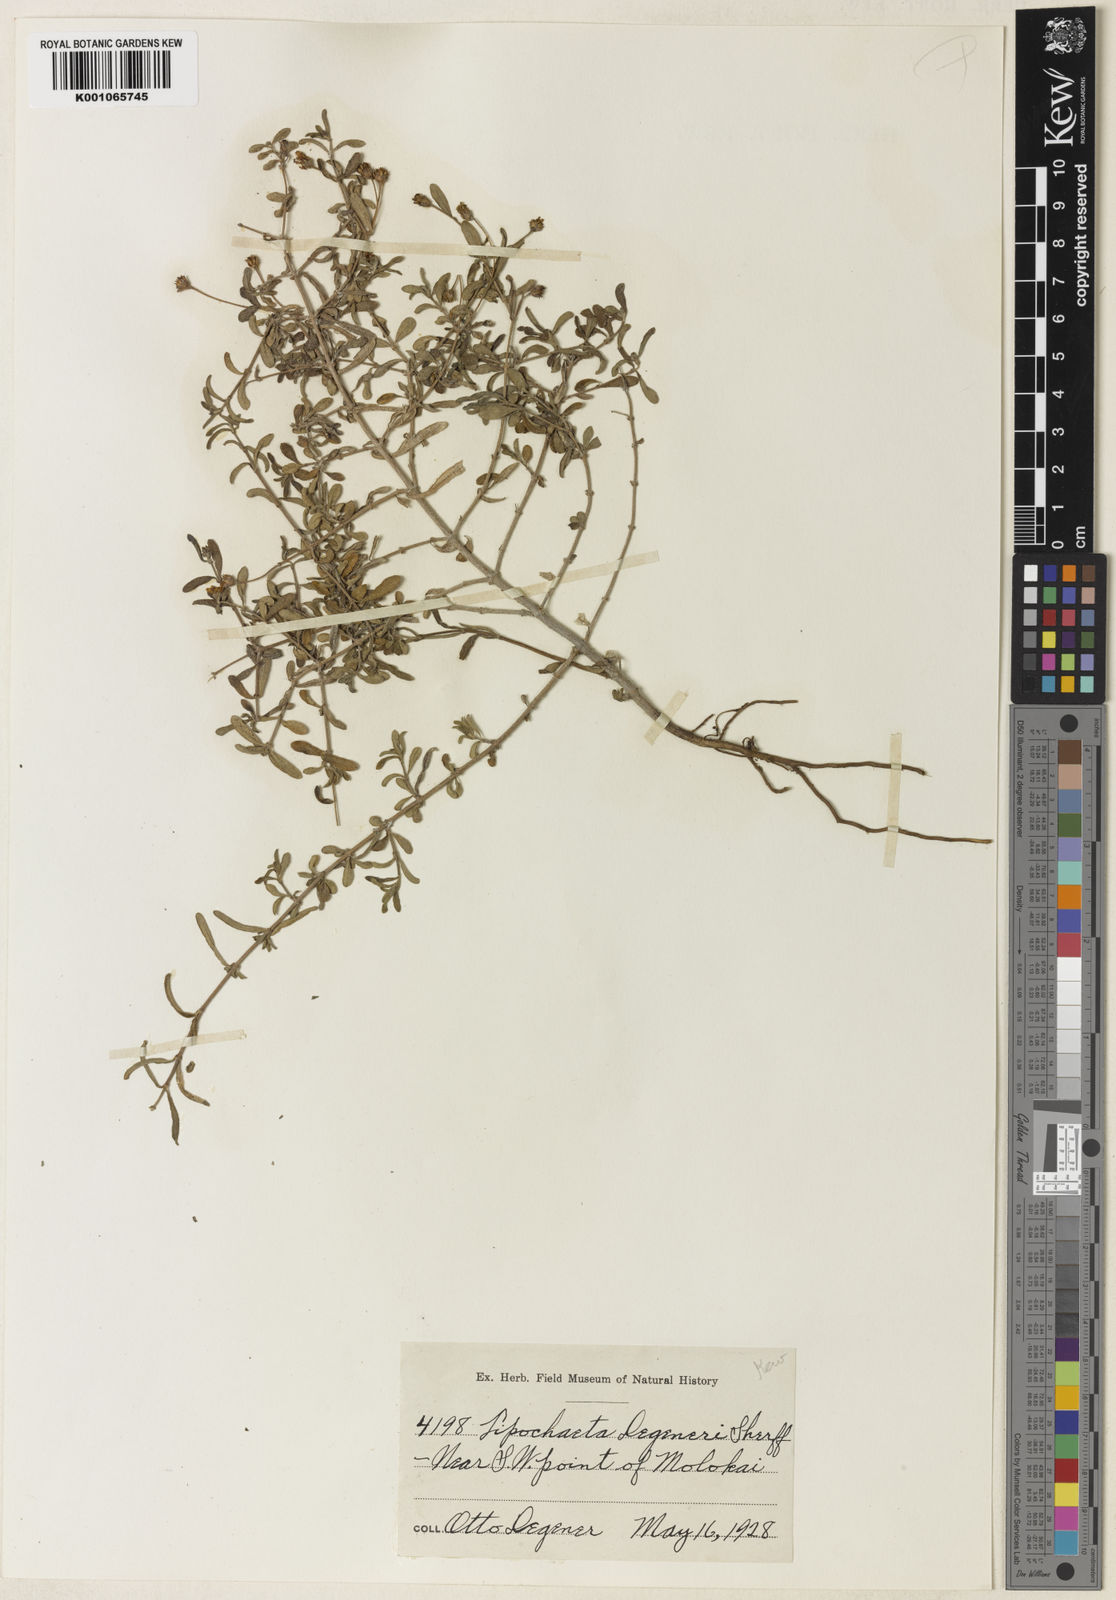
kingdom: Plantae
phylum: Tracheophyta
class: Magnoliopsida
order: Asterales
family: Asteraceae
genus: Lipochaeta
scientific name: Lipochaeta degeneri
